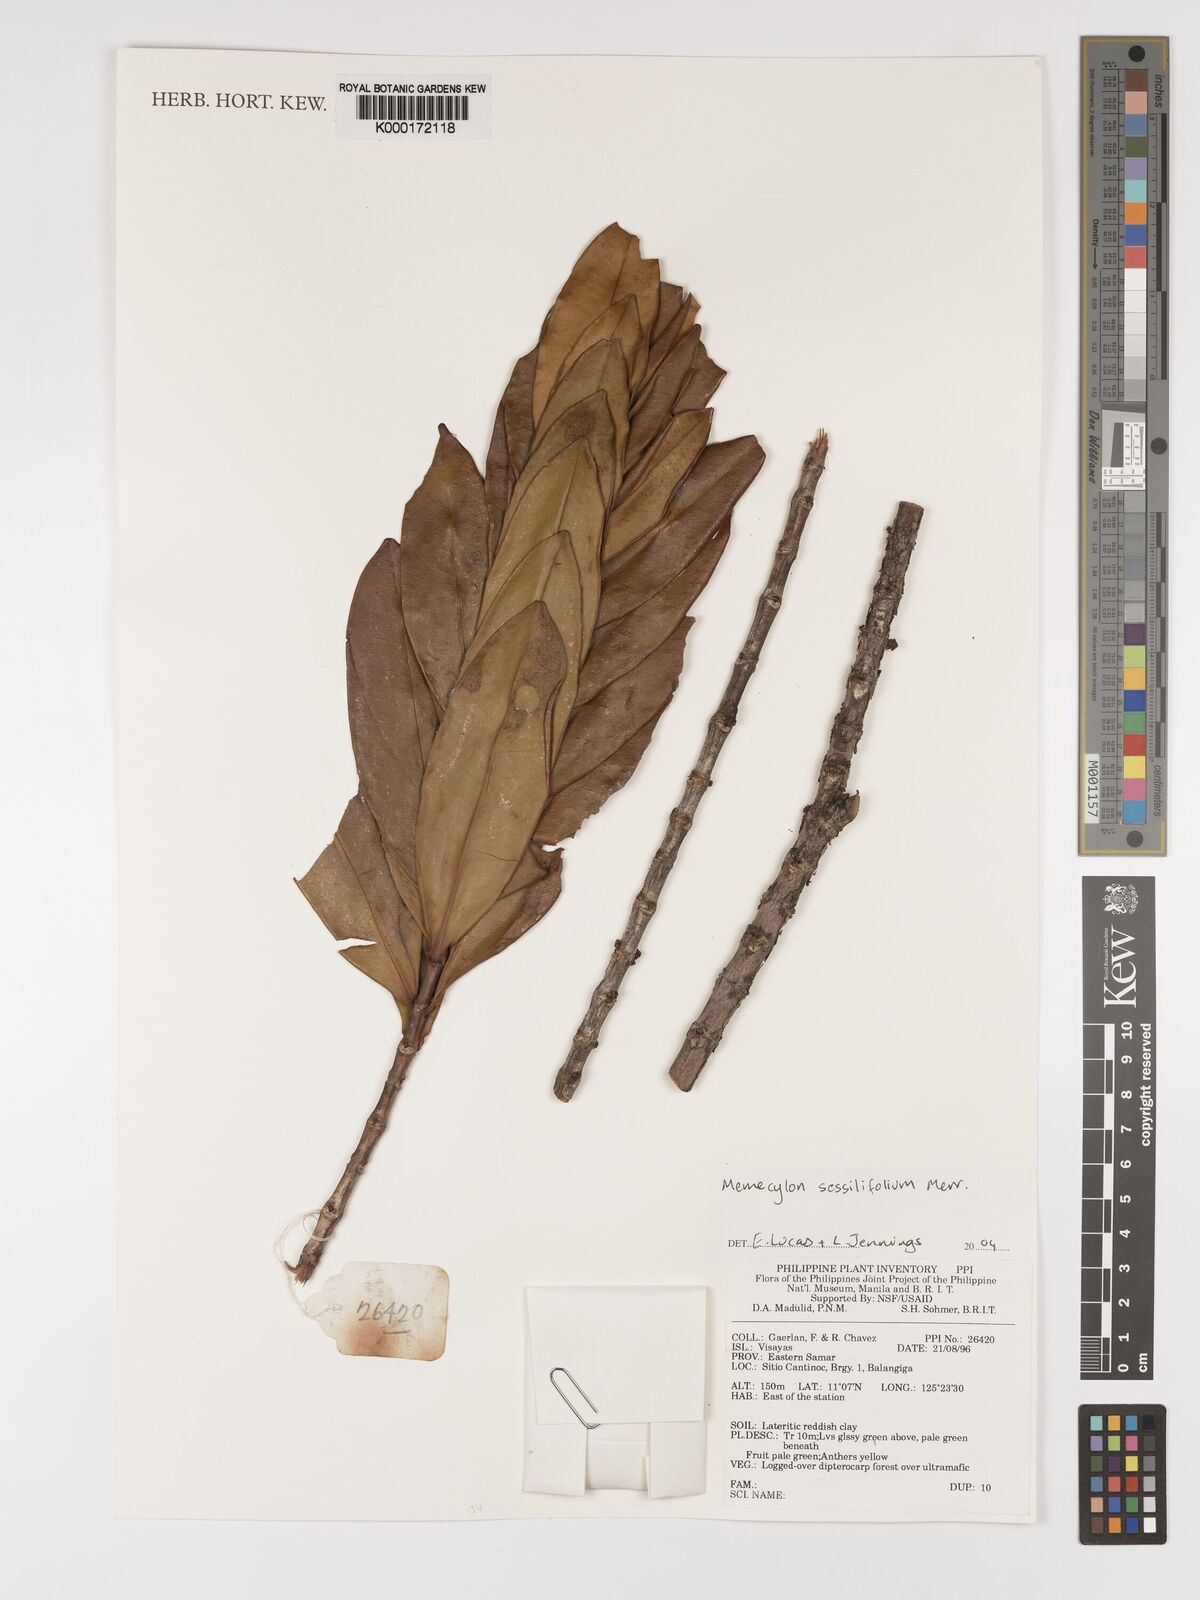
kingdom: Plantae
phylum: Tracheophyta
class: Magnoliopsida
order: Myrtales
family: Melastomataceae
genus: Memecylon
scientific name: Memecylon sessilifolium
